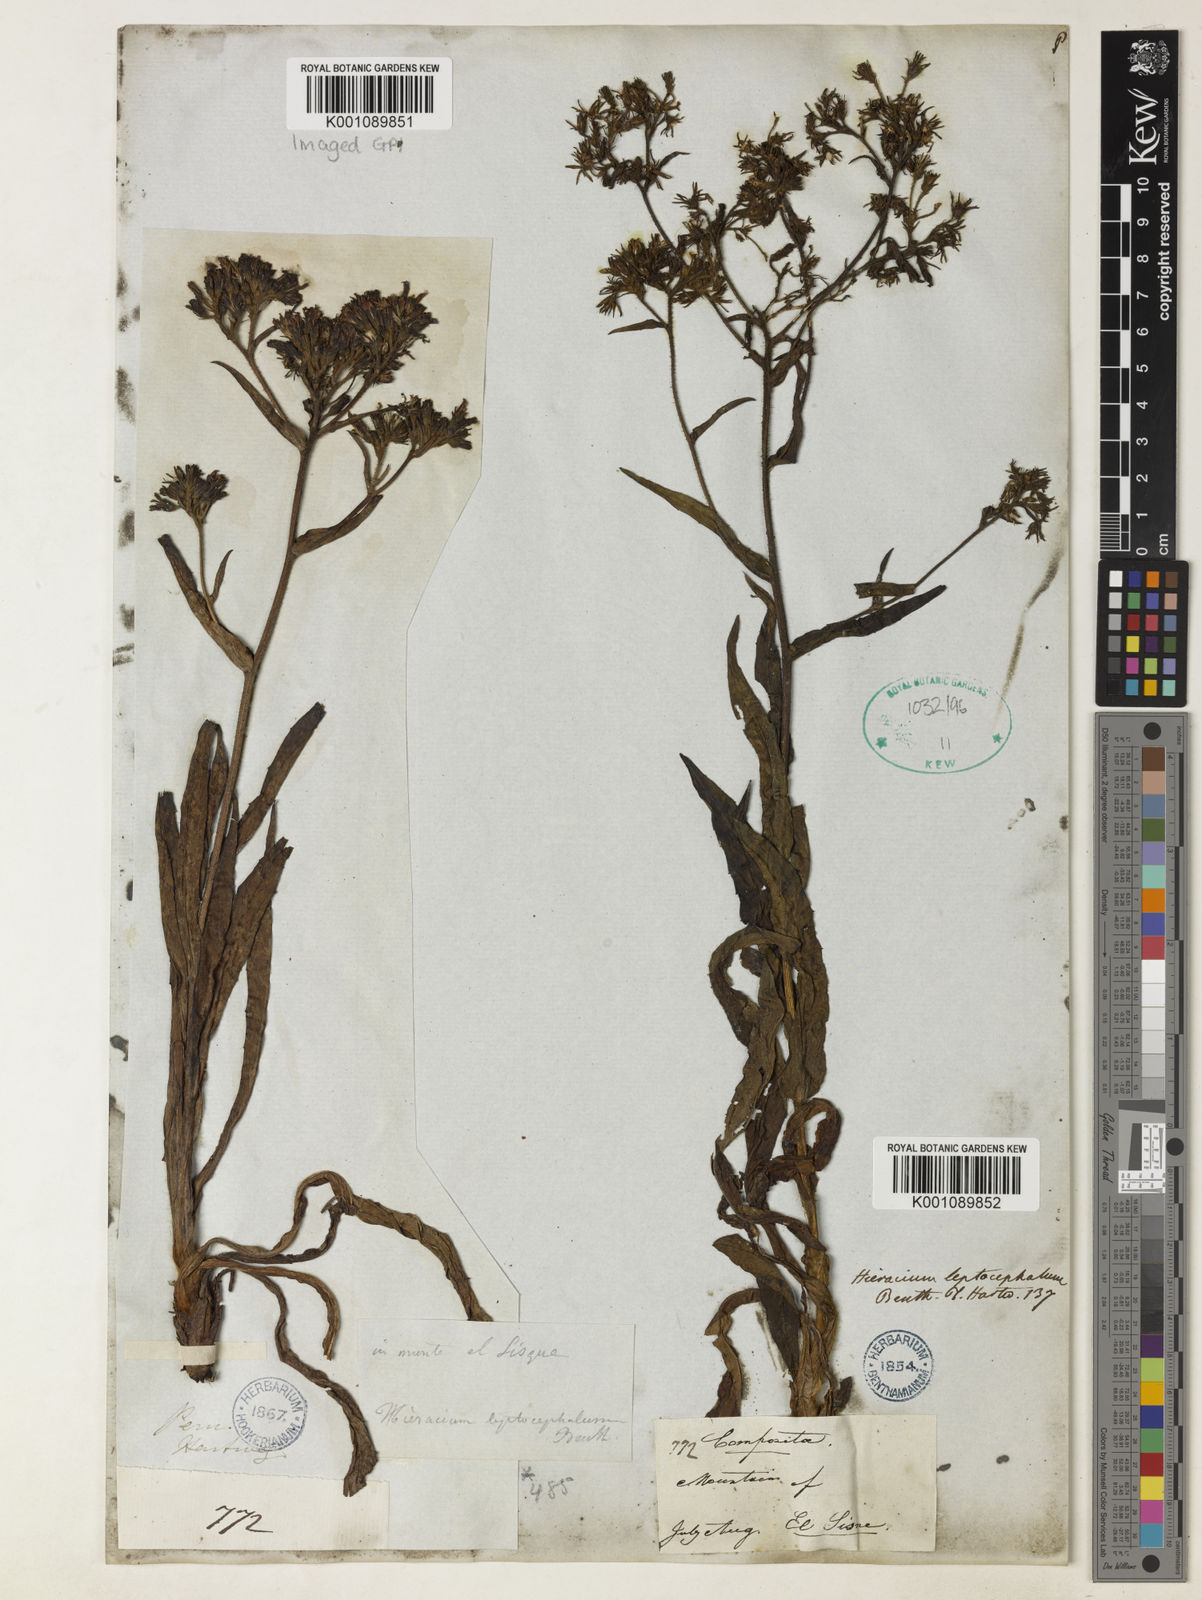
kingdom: Plantae
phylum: Tracheophyta
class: Magnoliopsida
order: Asterales
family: Asteraceae
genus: Hieracium
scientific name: Hieracium leptocephalum
